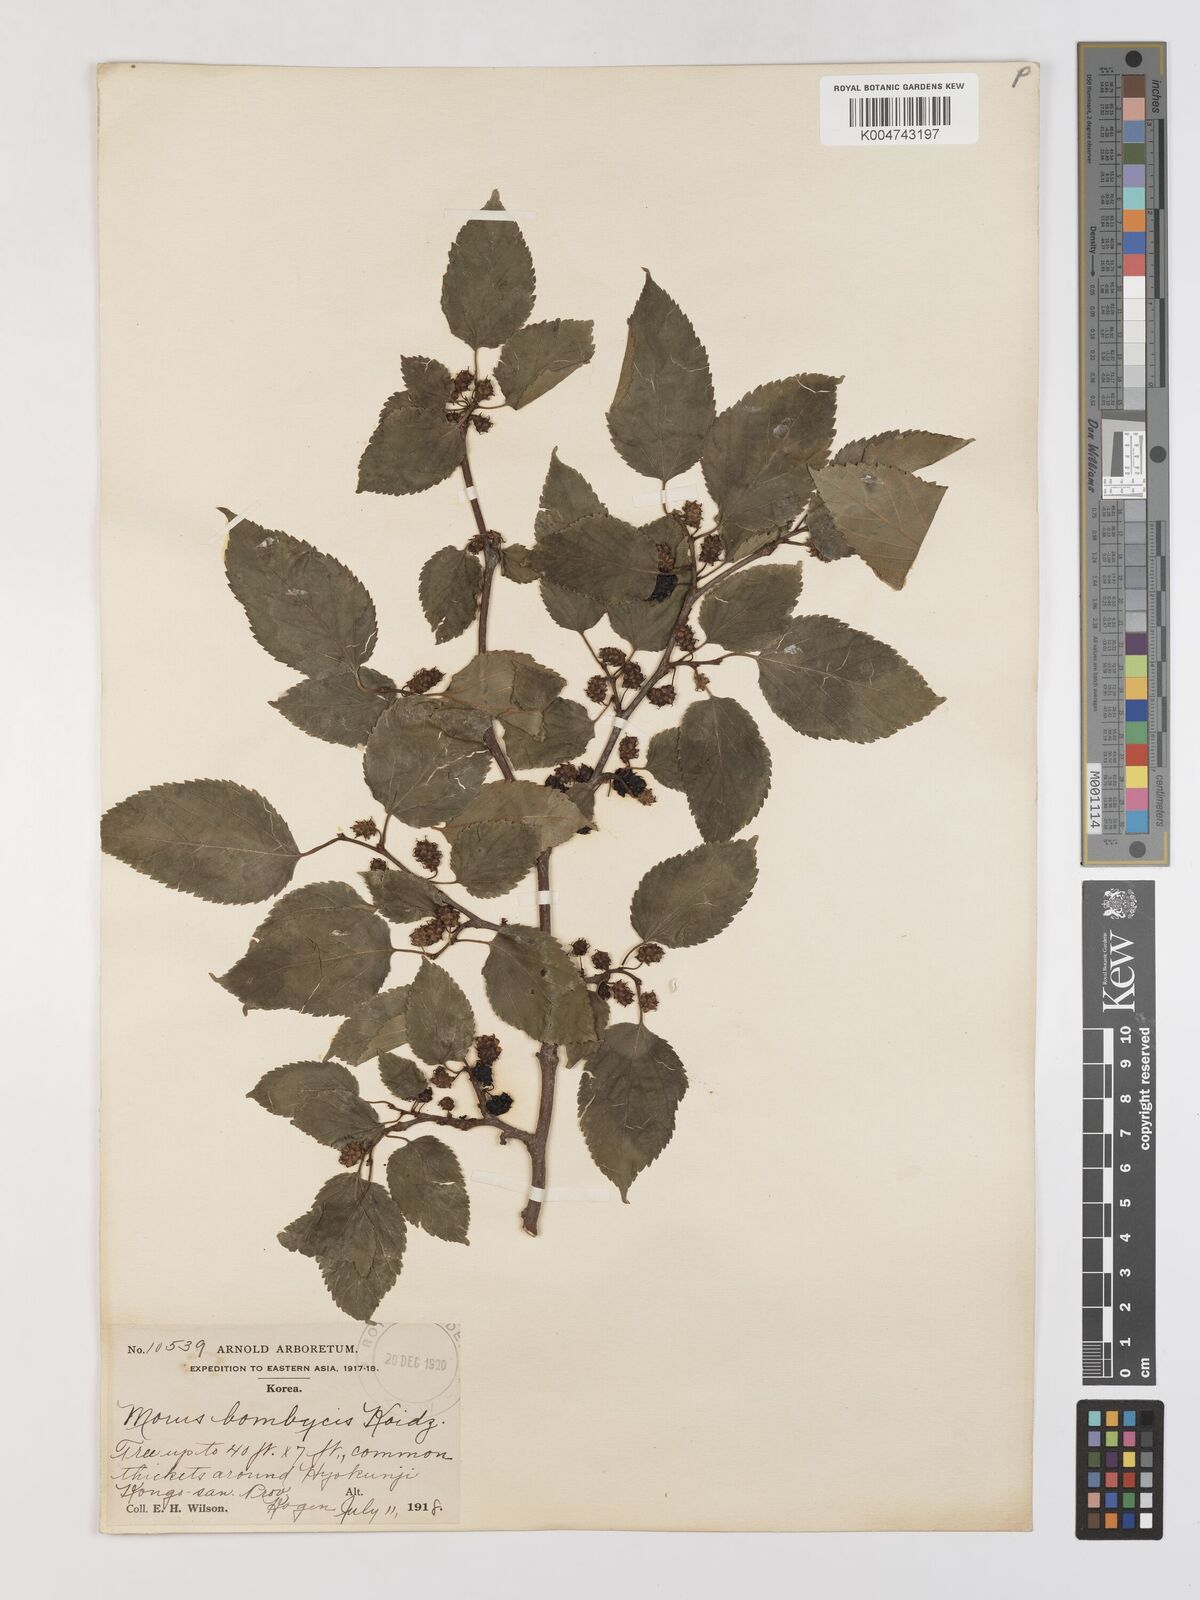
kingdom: Plantae
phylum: Tracheophyta
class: Magnoliopsida
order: Rosales
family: Moraceae
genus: Morus
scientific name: Morus indica
